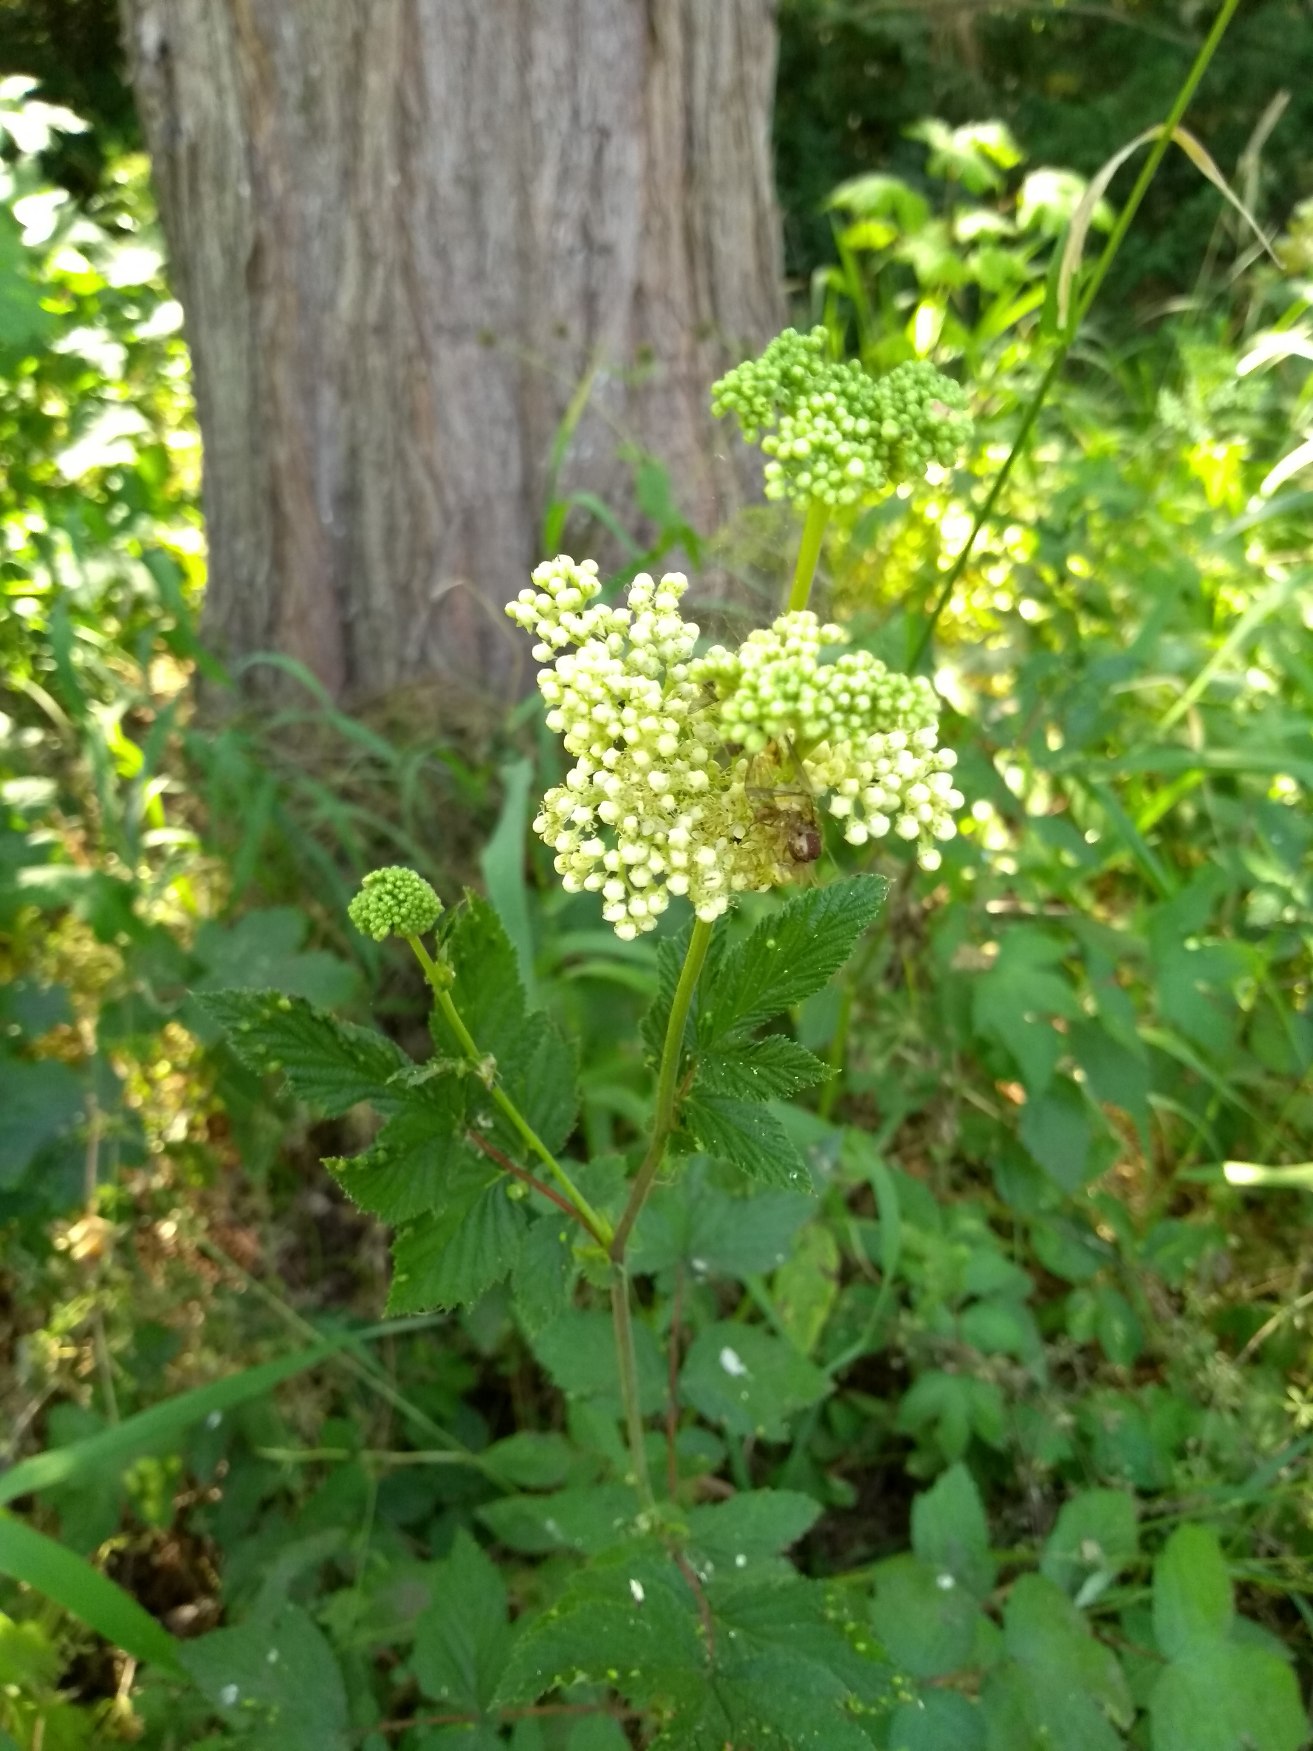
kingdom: Plantae
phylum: Tracheophyta
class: Magnoliopsida
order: Rosales
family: Rosaceae
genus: Filipendula
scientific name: Filipendula ulmaria
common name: Almindelig mjødurt
